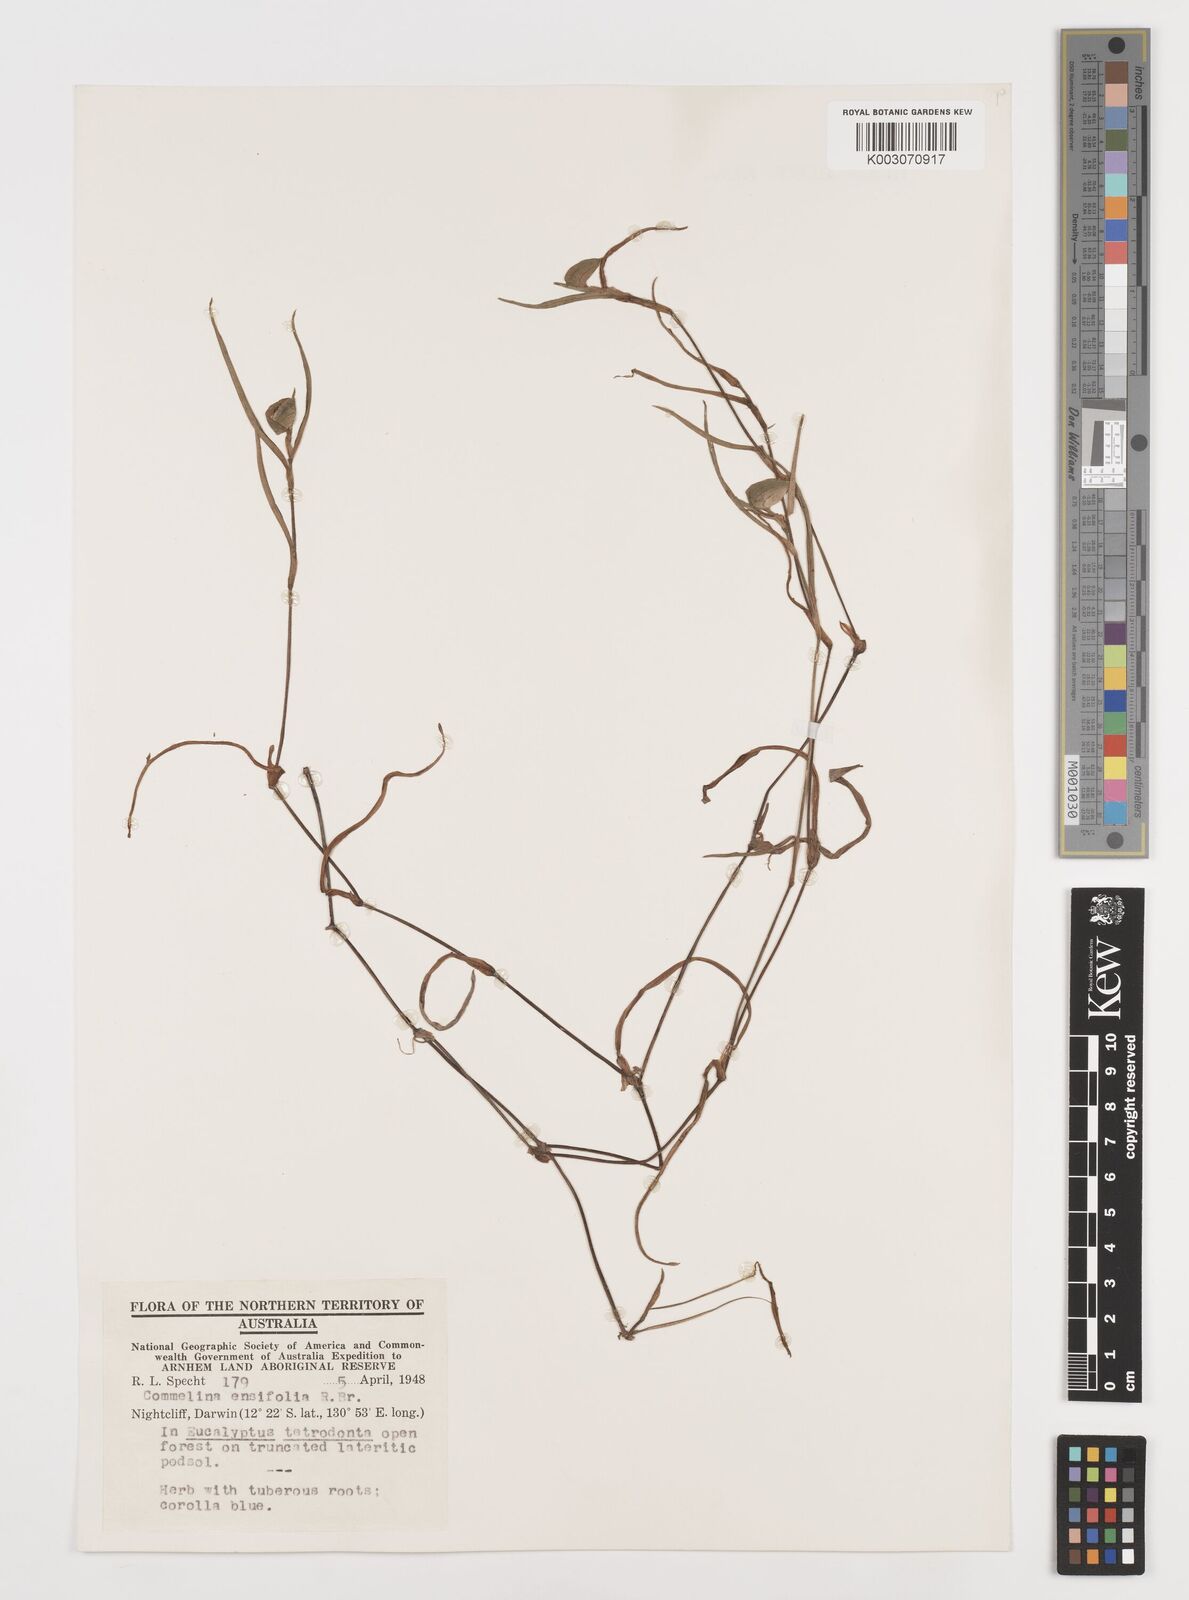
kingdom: Plantae
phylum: Tracheophyta
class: Liliopsida
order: Commelinales
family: Commelinaceae
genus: Commelina
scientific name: Commelina ensifolia
